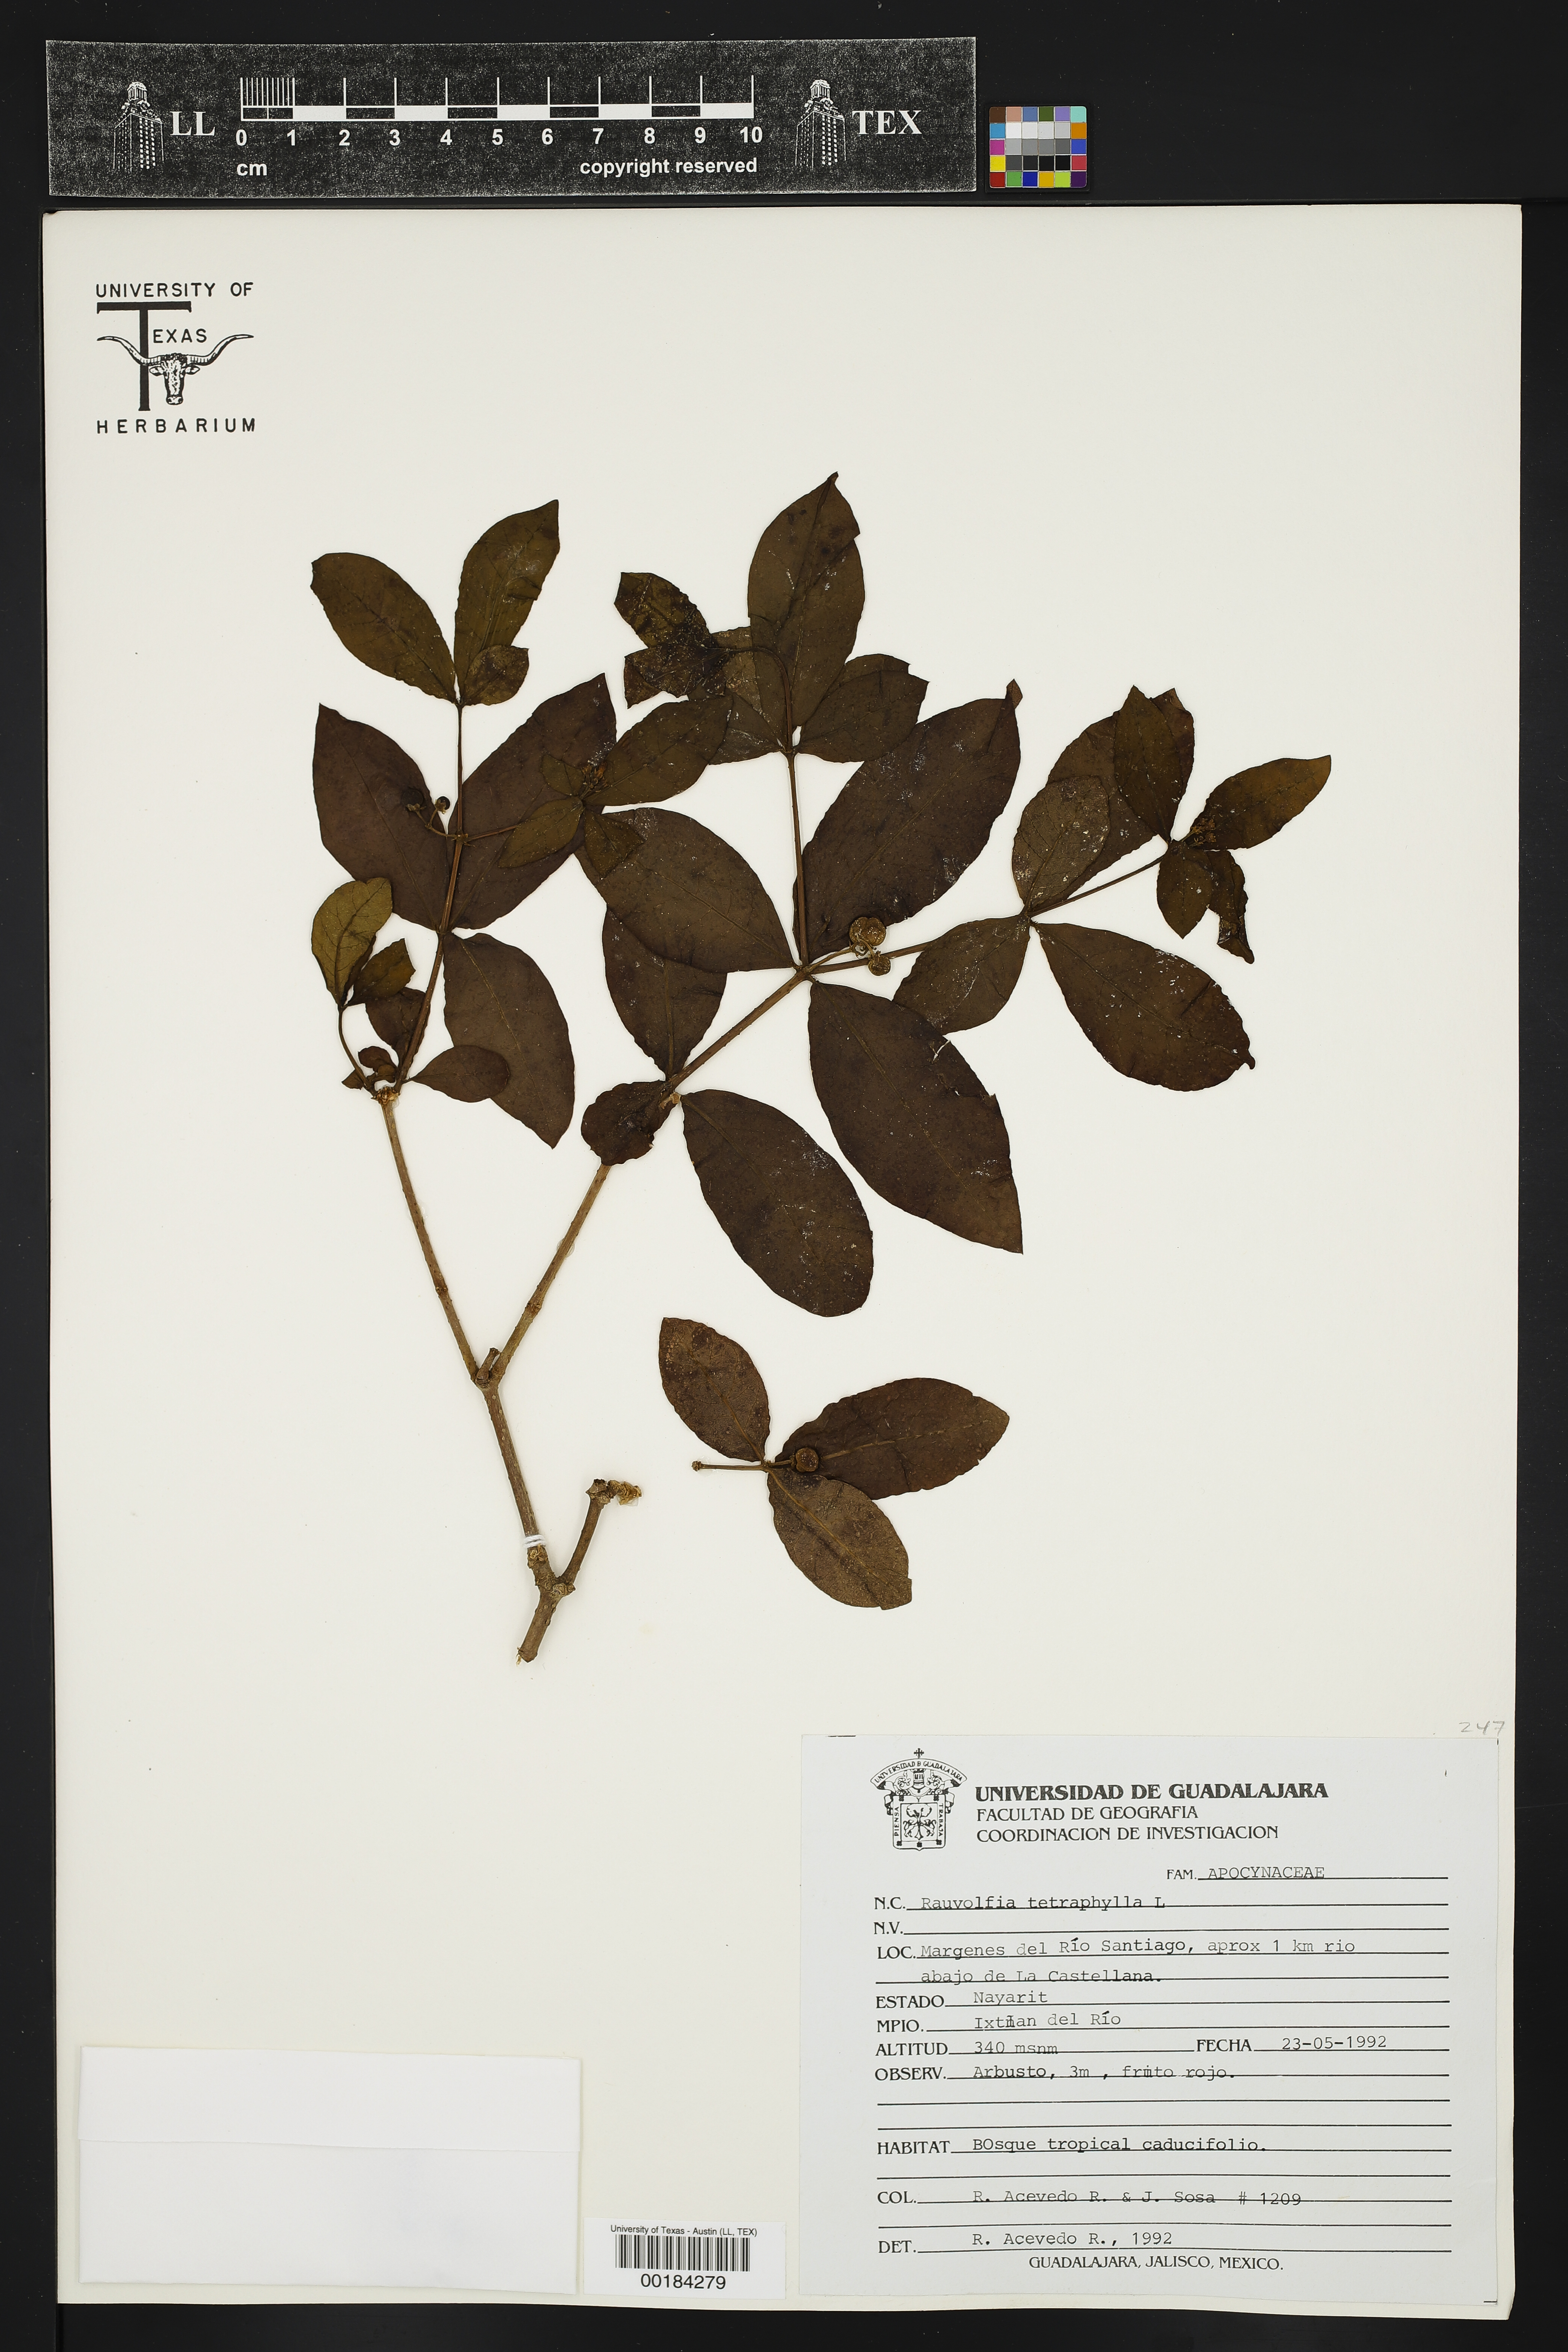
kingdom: Plantae
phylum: Tracheophyta
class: Magnoliopsida
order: Gentianales
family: Apocynaceae
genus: Rauvolfia
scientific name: Rauvolfia tetraphylla
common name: Four-leaf devil-pepper
